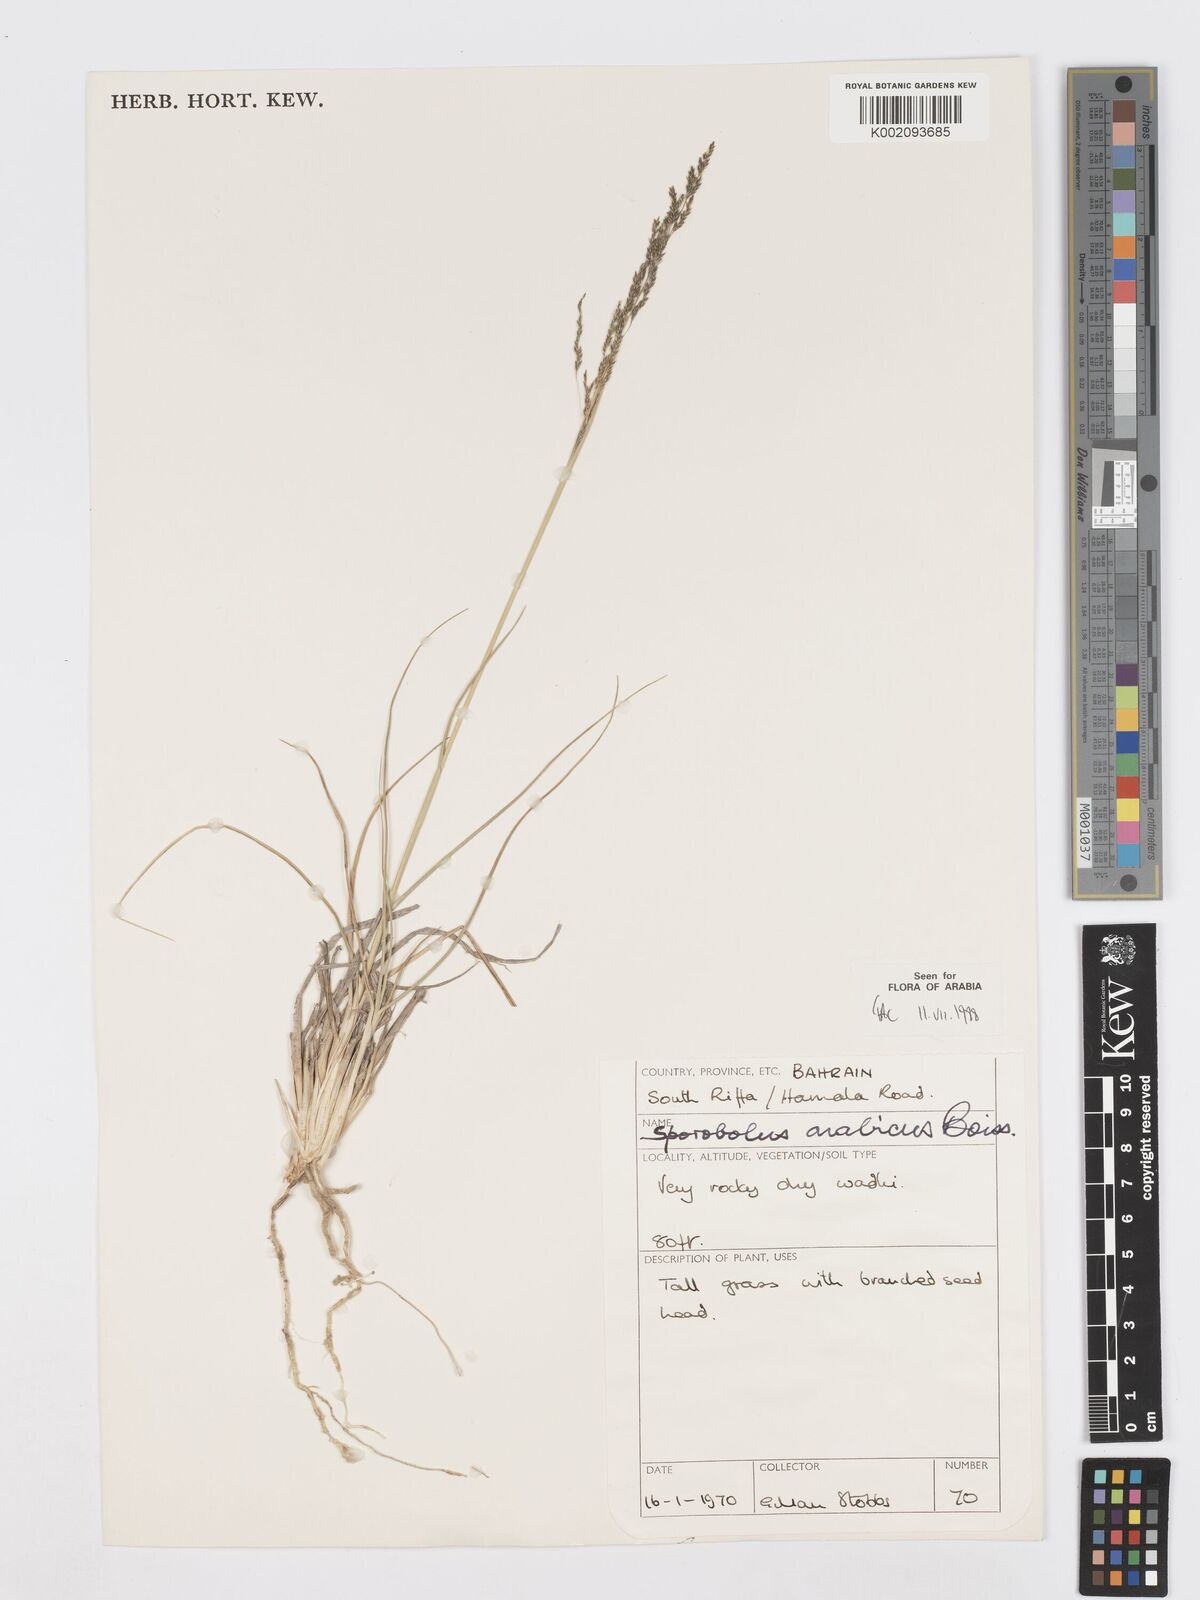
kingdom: Plantae
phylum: Tracheophyta
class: Liliopsida
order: Poales
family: Poaceae
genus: Sporobolus
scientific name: Sporobolus ioclados
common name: Pan dropseed
